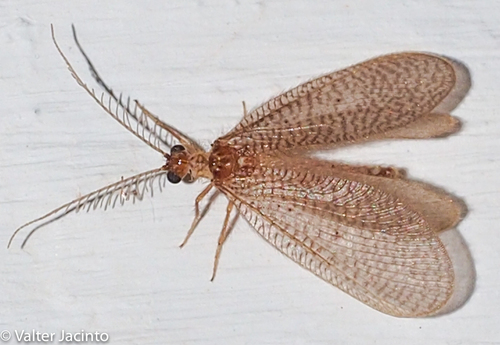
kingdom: Animalia
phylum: Arthropoda
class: Insecta
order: Neuroptera
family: Dilaridae
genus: Dilar
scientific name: Dilar pumilus
